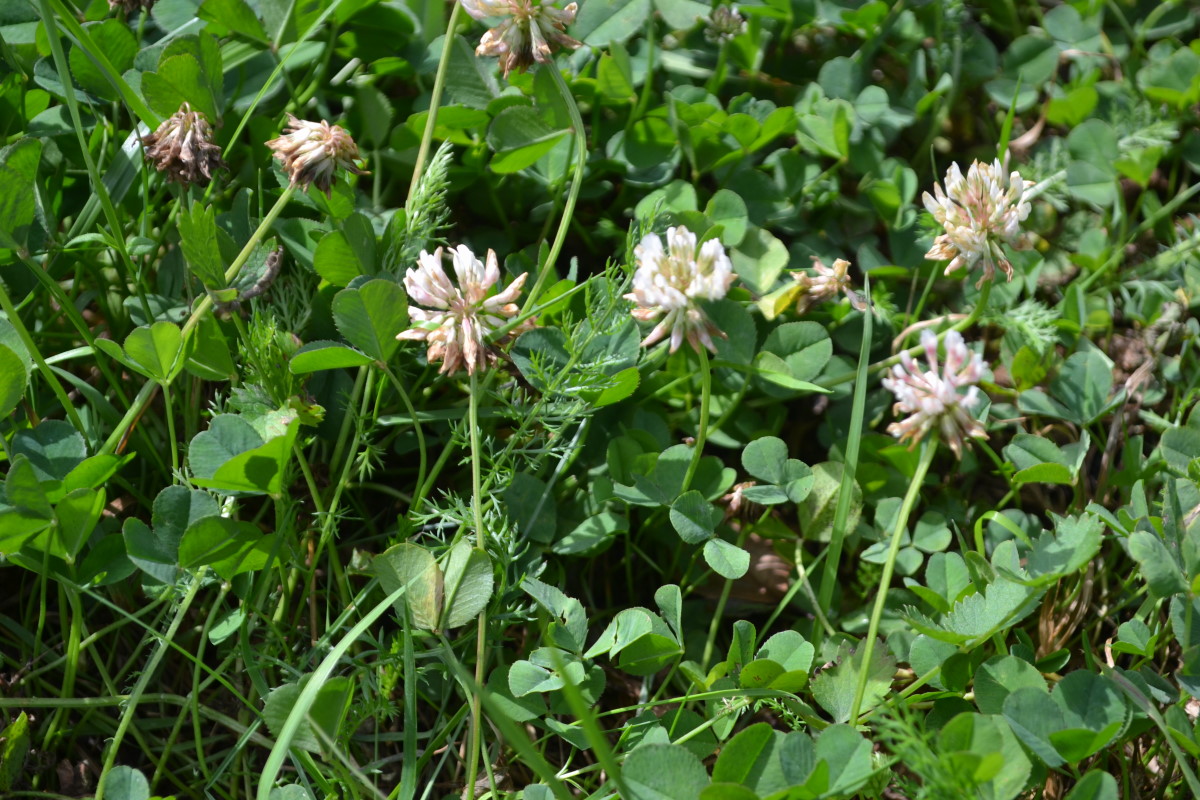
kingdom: Plantae
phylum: Tracheophyta
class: Magnoliopsida
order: Fabales
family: Fabaceae
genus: Trifolium
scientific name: Trifolium repens
